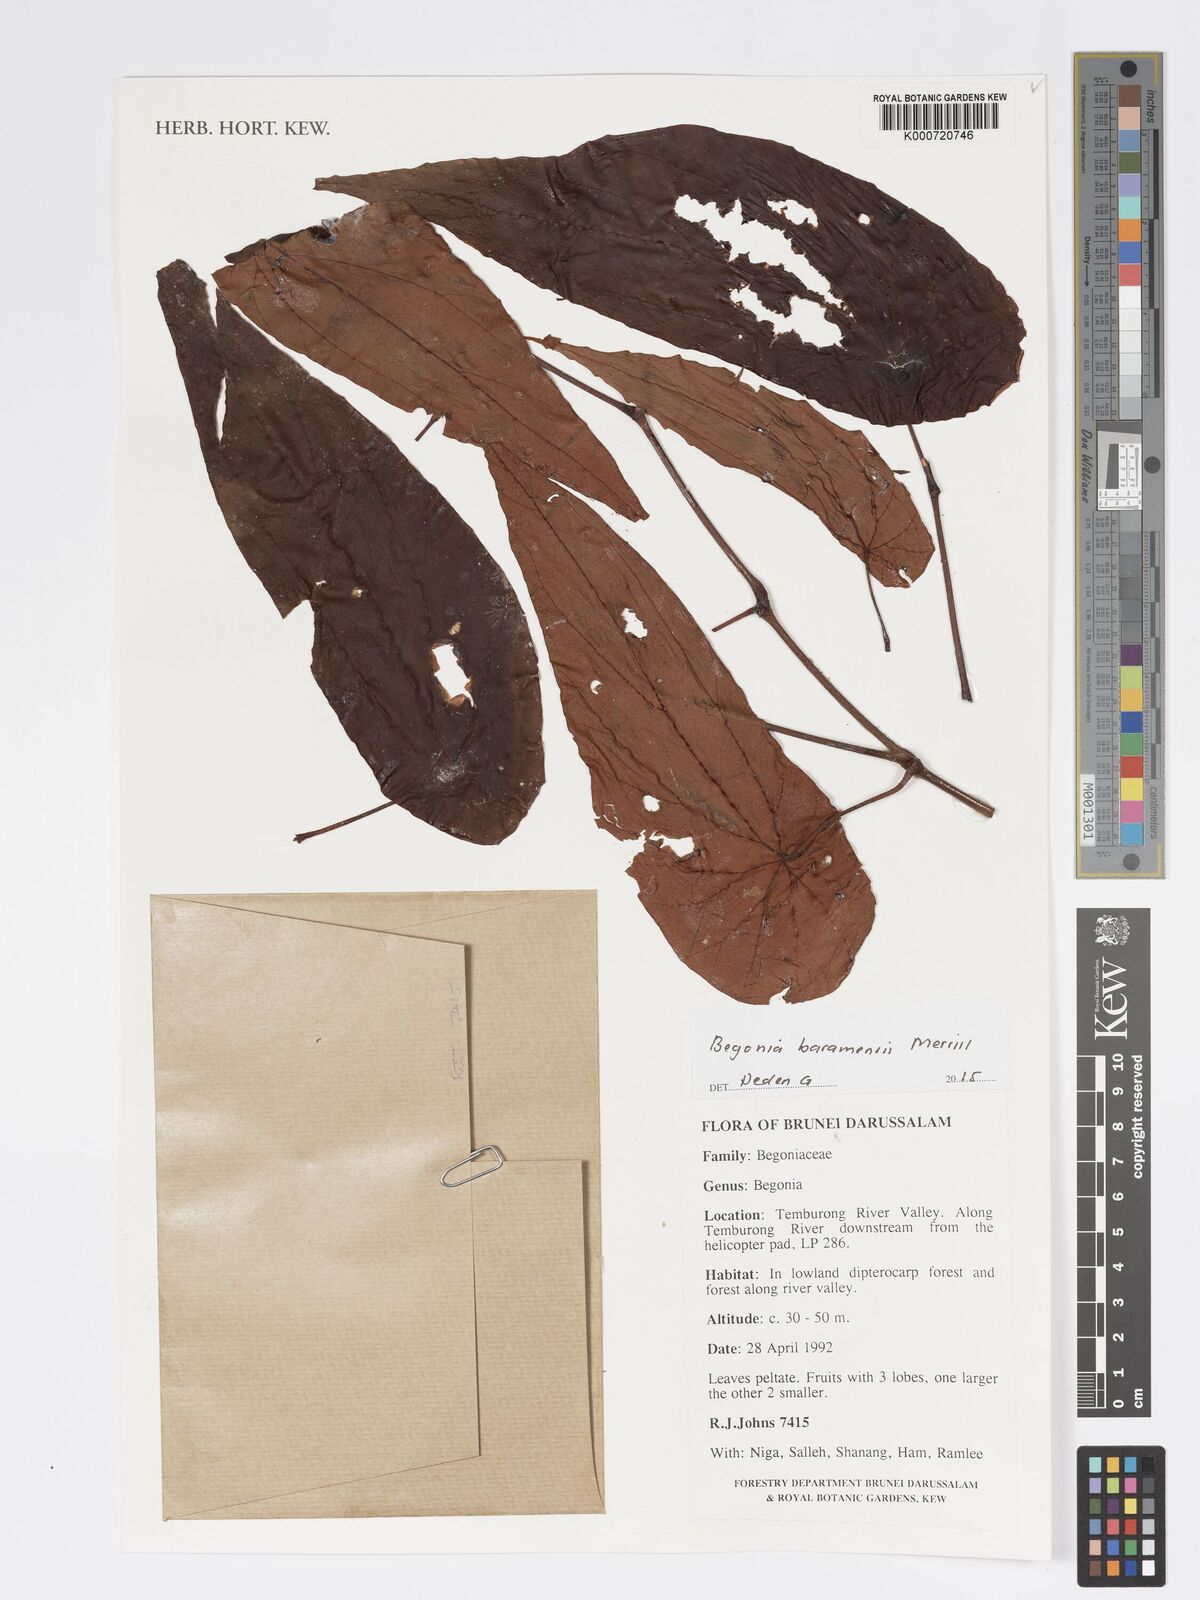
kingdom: Plantae
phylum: Tracheophyta
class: Magnoliopsida
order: Cucurbitales
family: Begoniaceae
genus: Begonia
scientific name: Begonia baramensis
